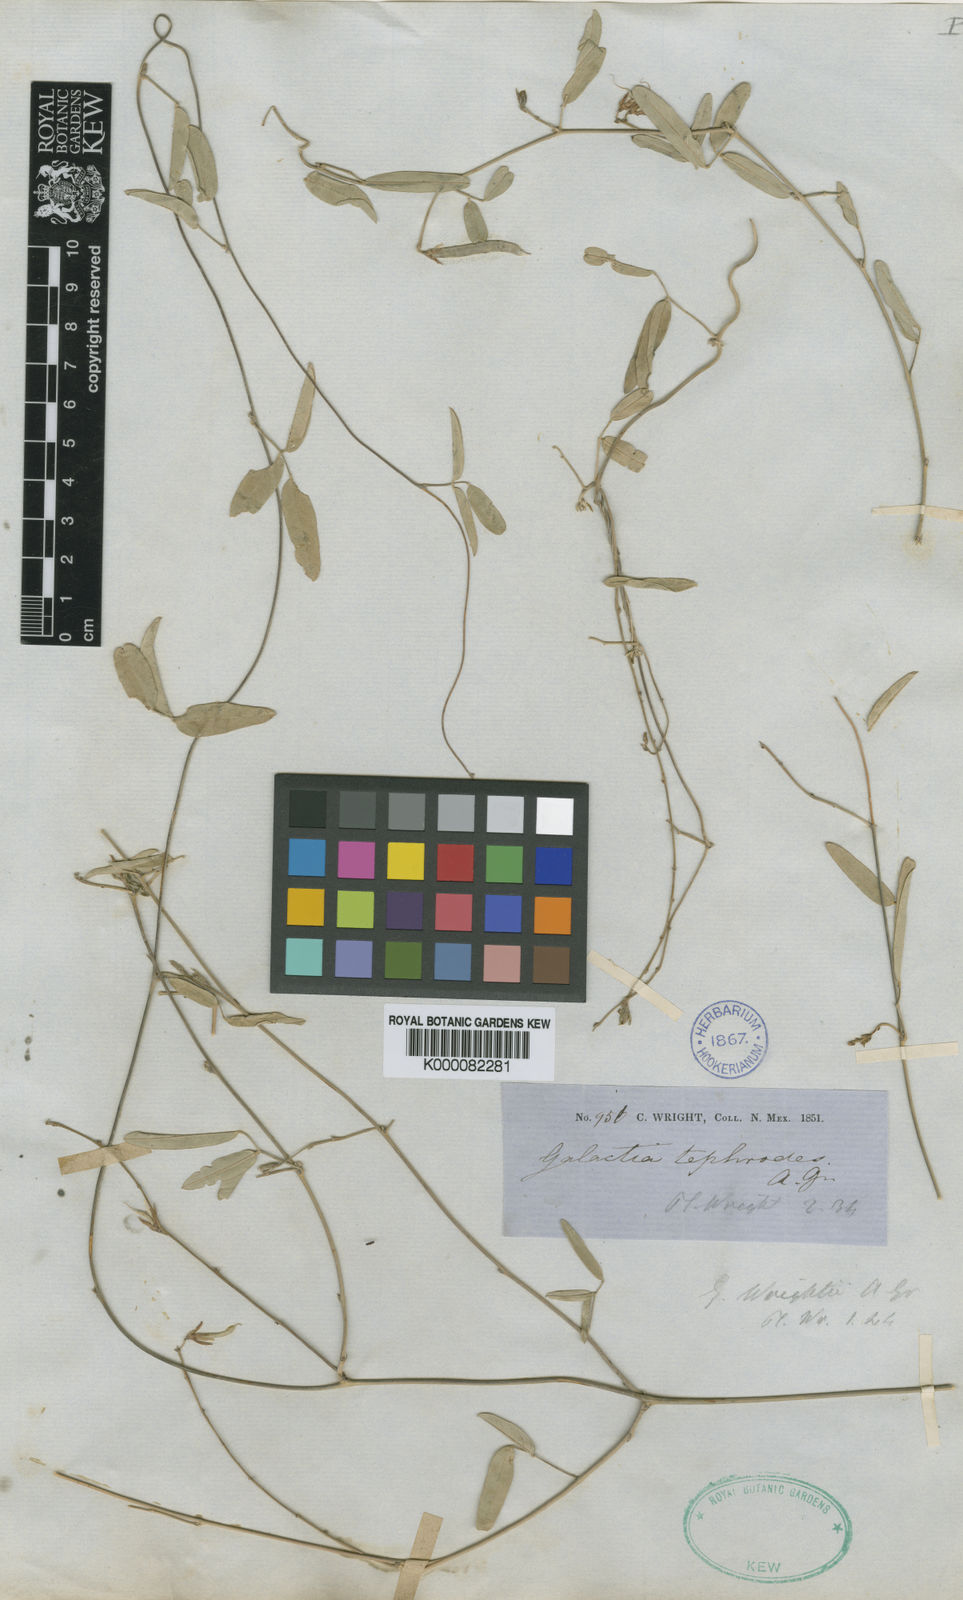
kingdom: Plantae
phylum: Tracheophyta
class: Magnoliopsida
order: Fabales
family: Fabaceae
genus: Galactia
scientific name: Galactia wrightii
